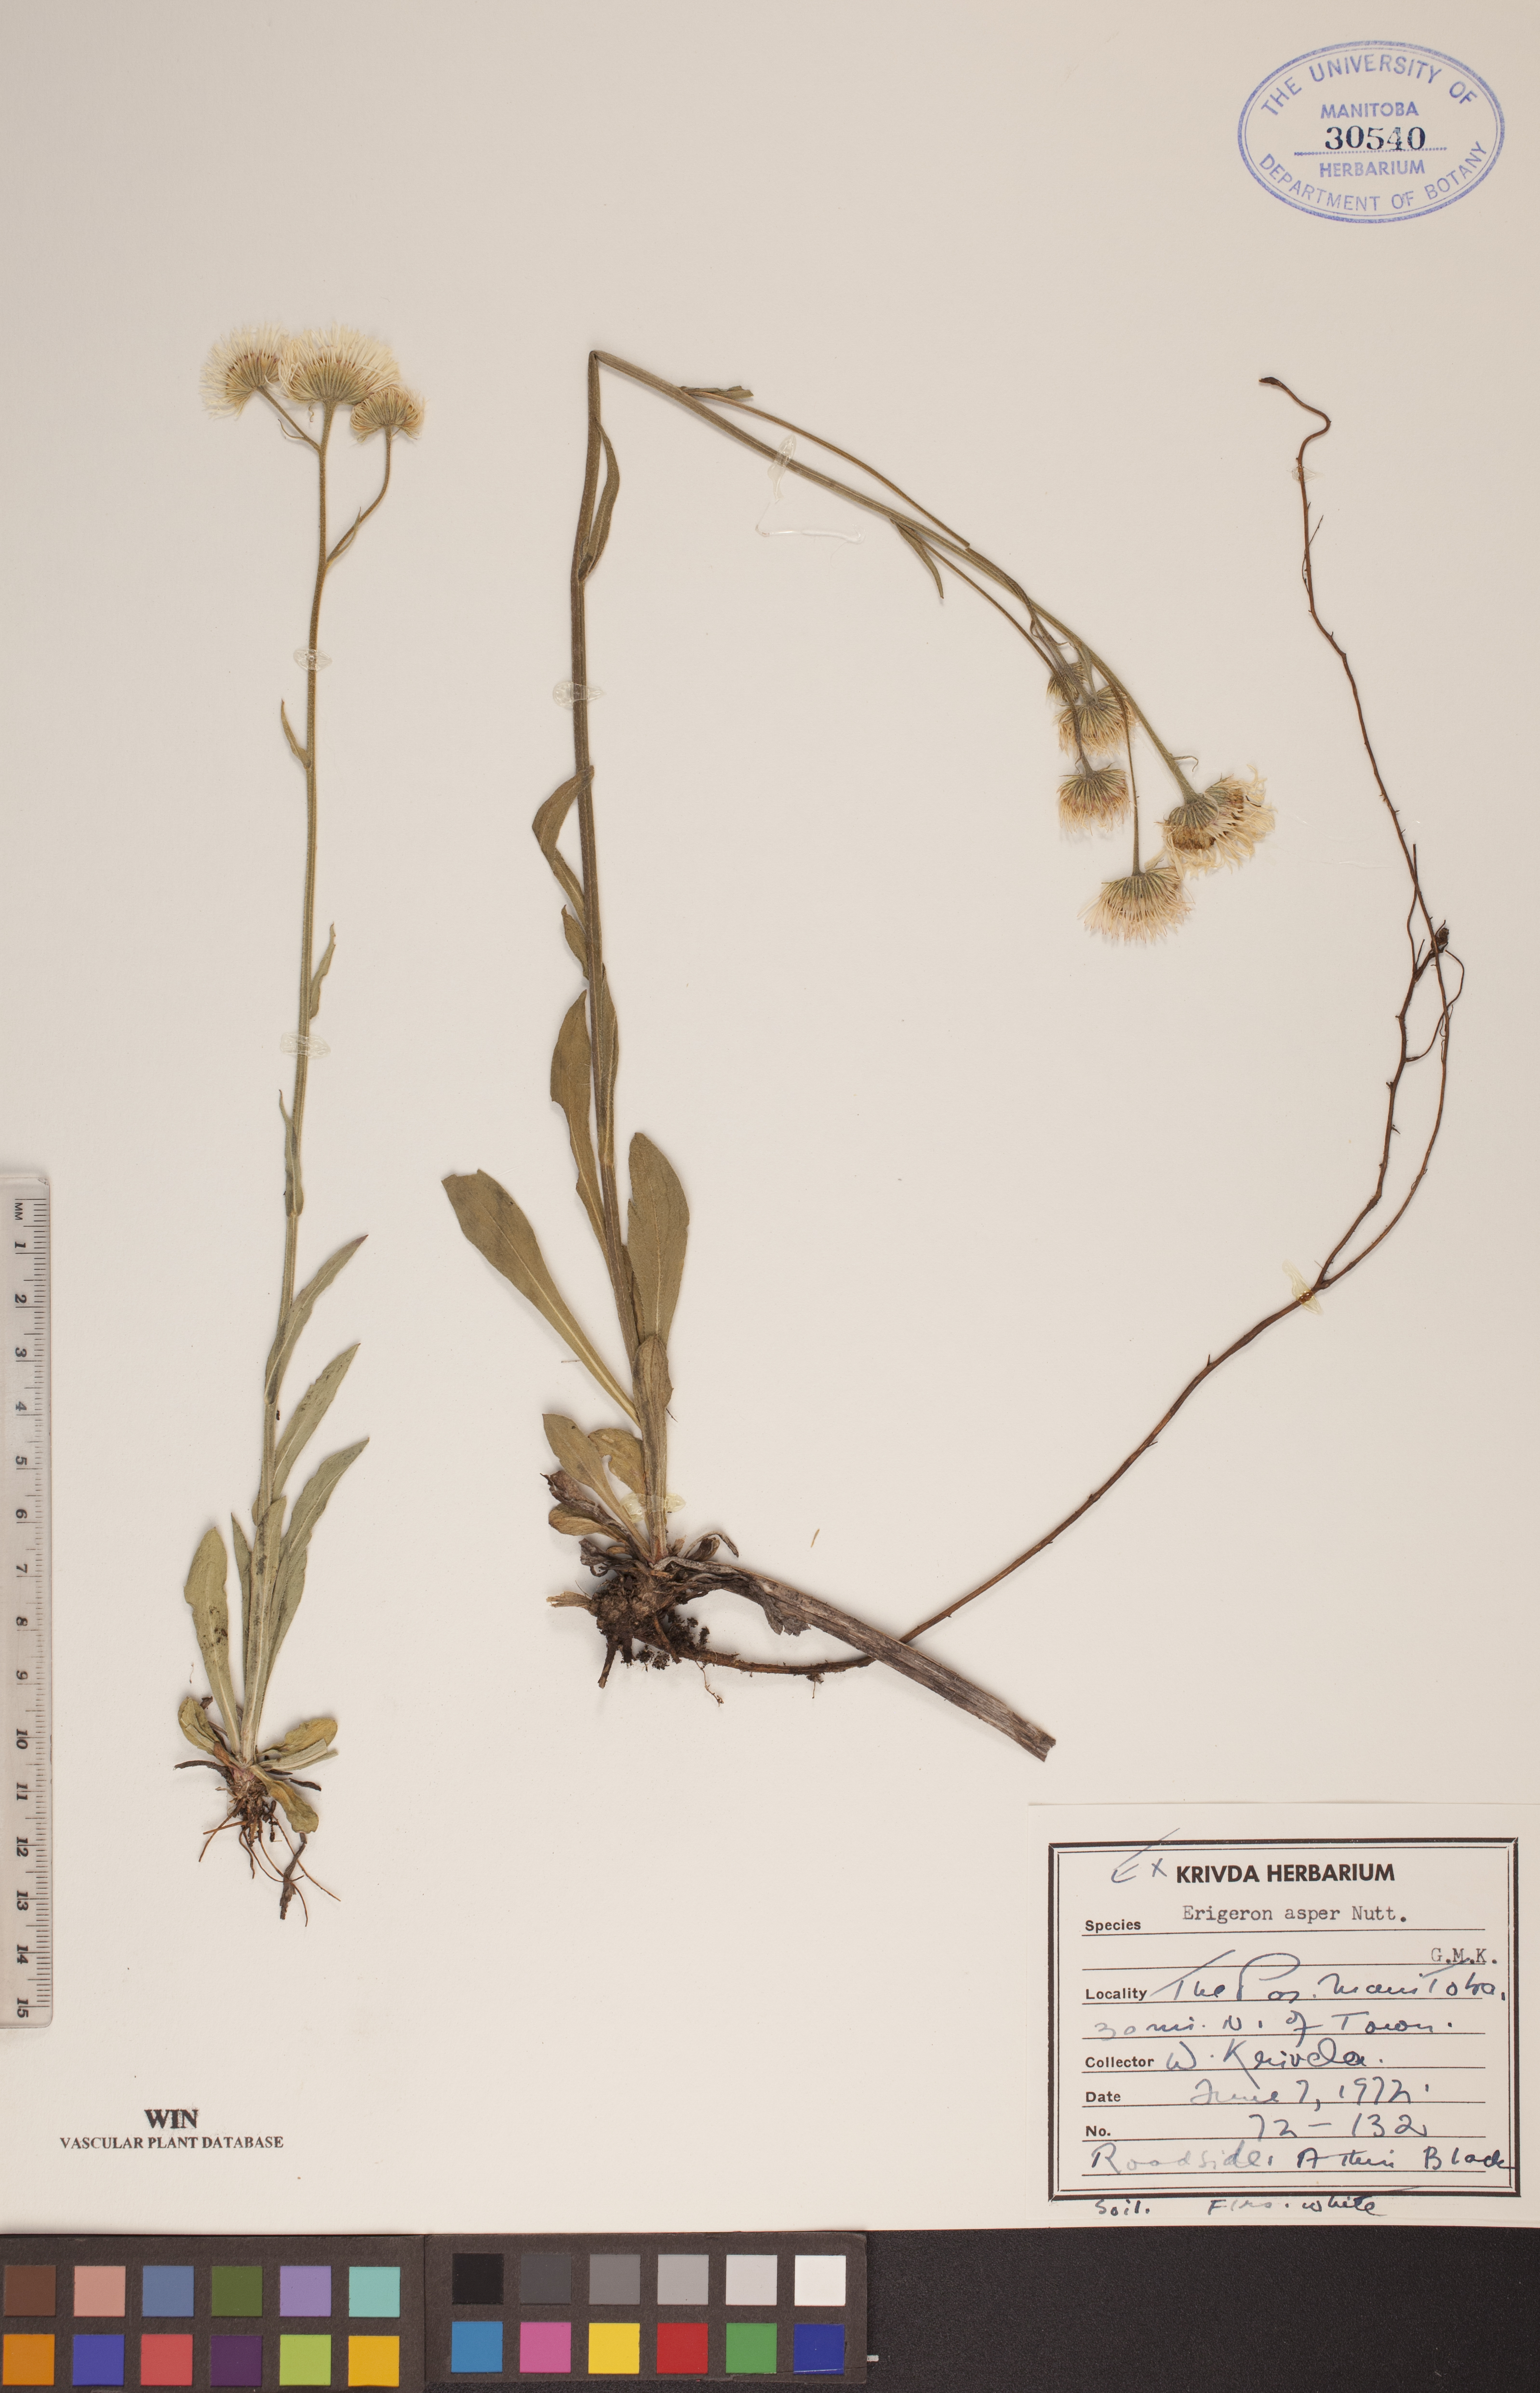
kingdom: Plantae
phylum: Tracheophyta
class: Magnoliopsida
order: Asterales
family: Asteraceae
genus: Erigeron
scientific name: Erigeron glabellus
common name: Smooth fleabane
